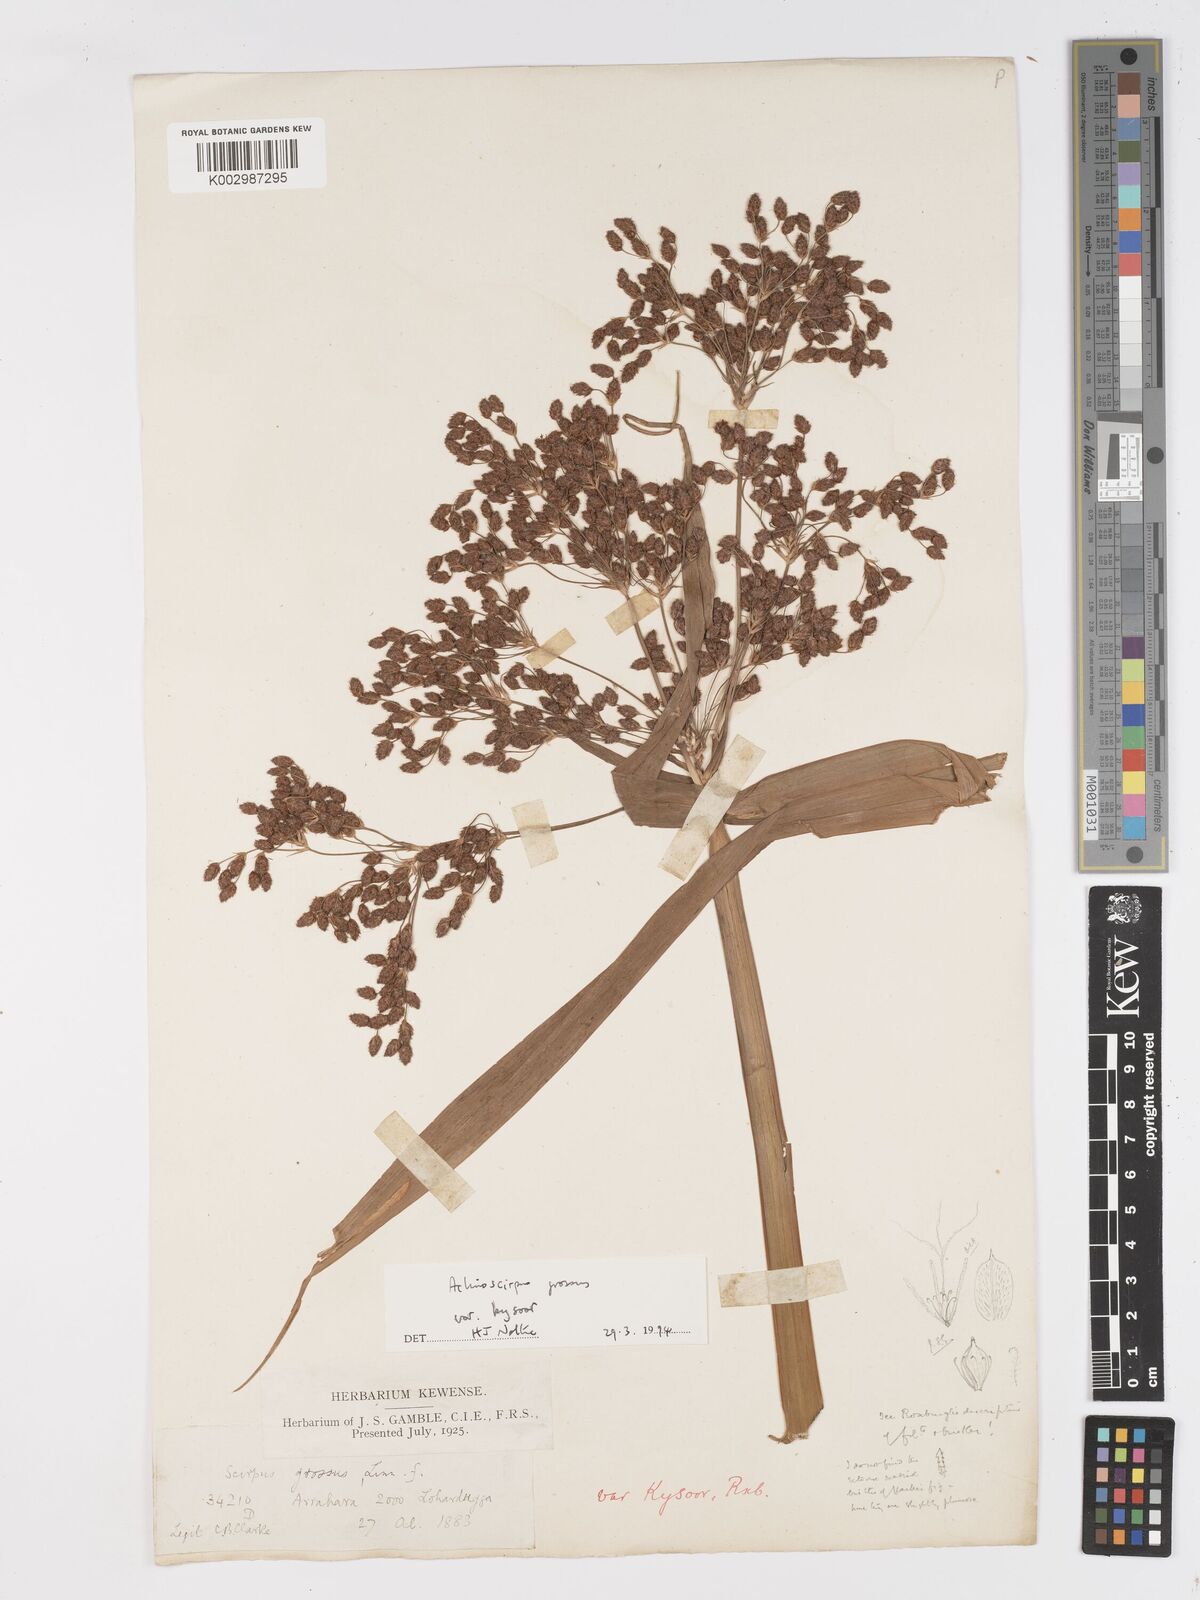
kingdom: Plantae
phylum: Tracheophyta
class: Liliopsida
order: Poales
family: Cyperaceae
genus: Actinoscirpus
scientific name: Actinoscirpus grossus
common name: Giant bur rush
